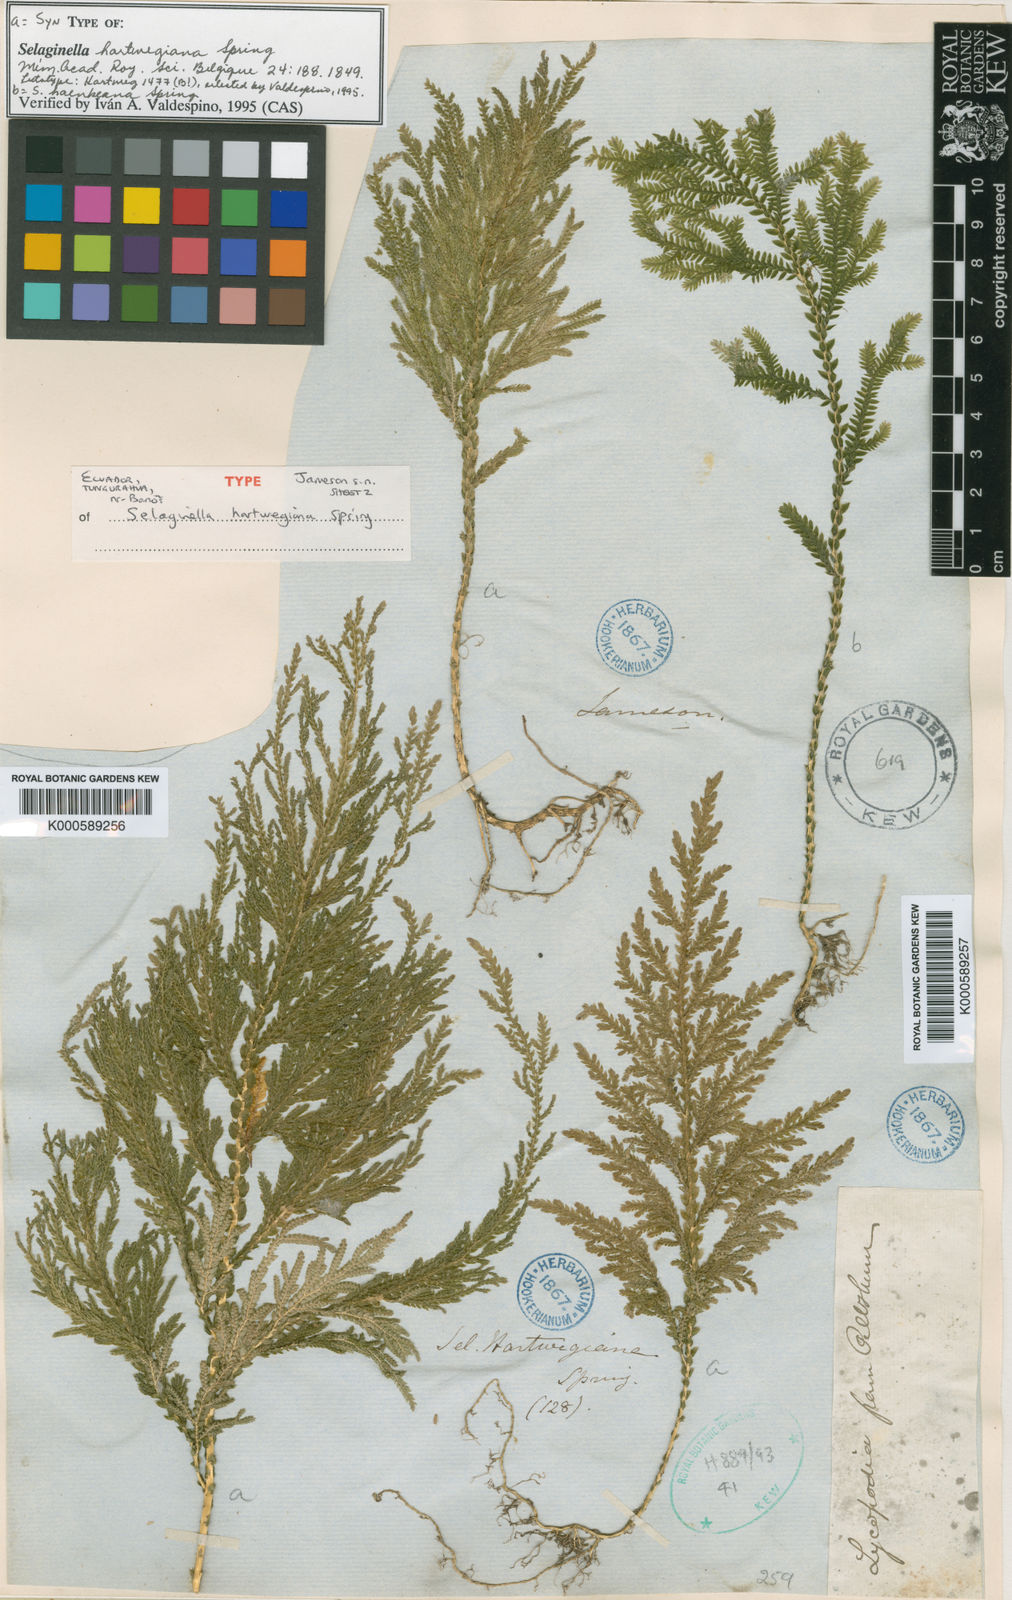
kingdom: Plantae
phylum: Tracheophyta
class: Lycopodiopsida
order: Selaginellales
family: Selaginellaceae
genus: Selaginella
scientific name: Selaginella hartwegiana
